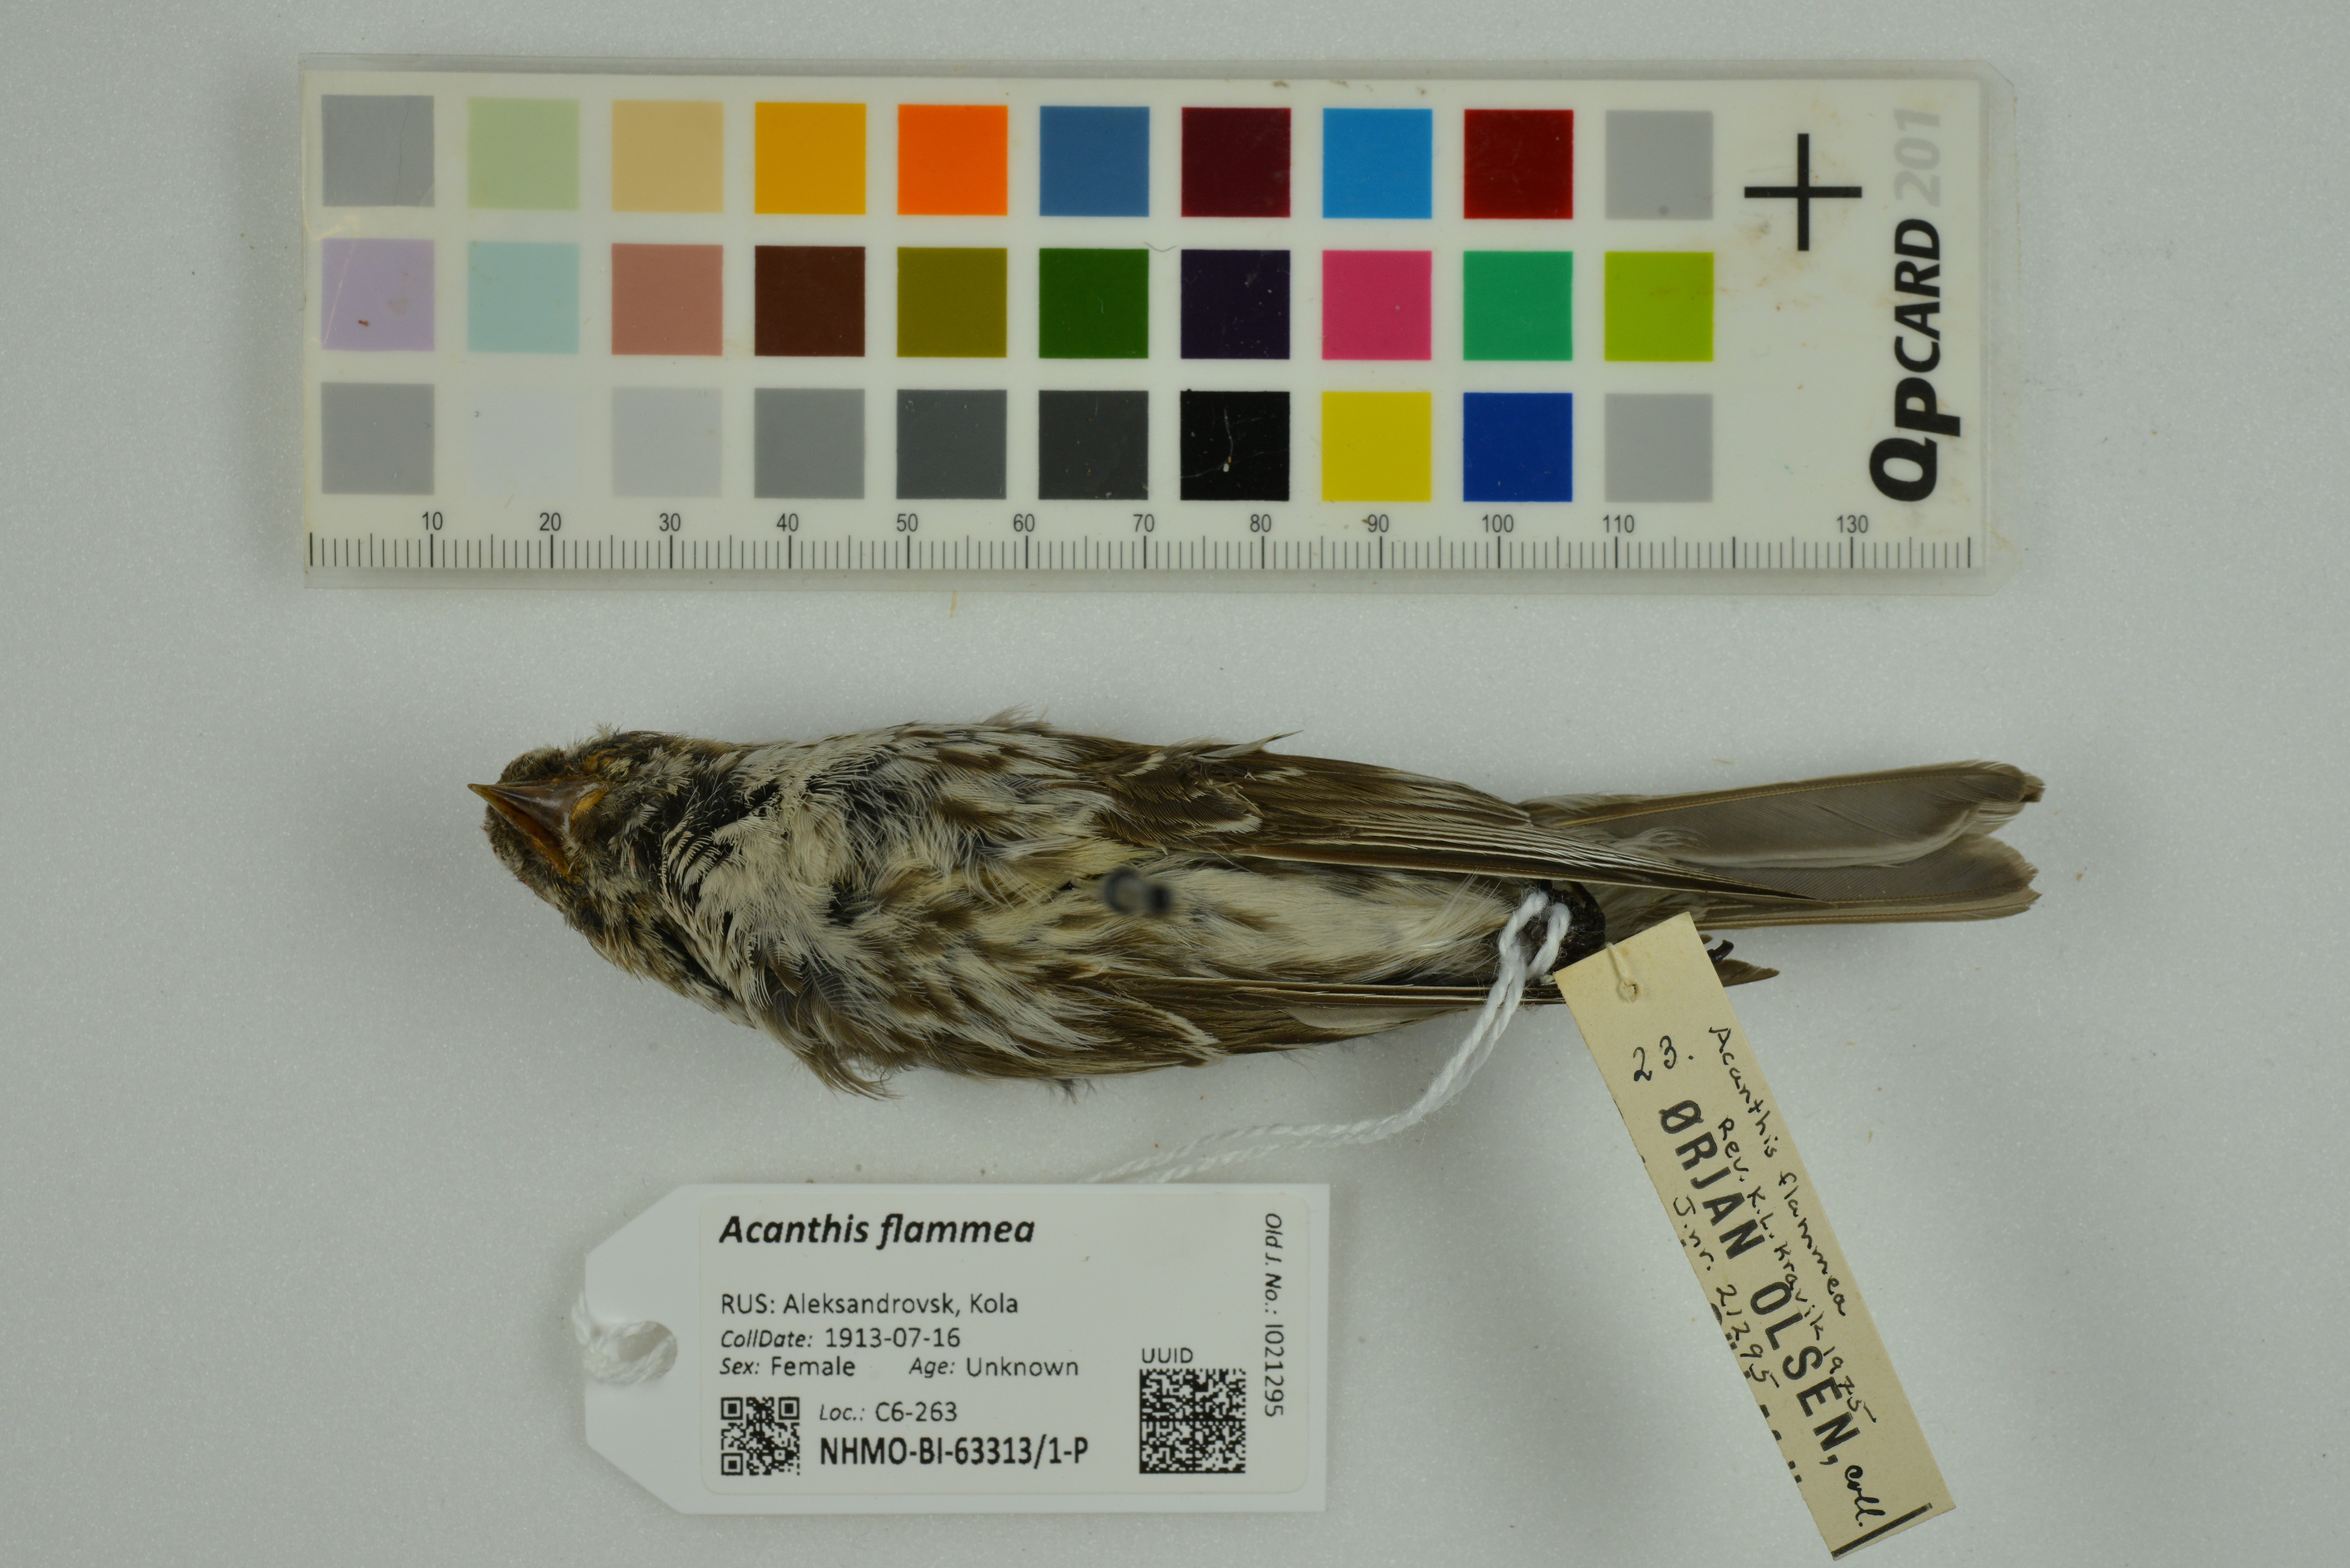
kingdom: Animalia
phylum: Chordata
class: Aves
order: Passeriformes
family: Fringillidae
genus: Acanthis
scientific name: Acanthis flammea
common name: Common redpoll
